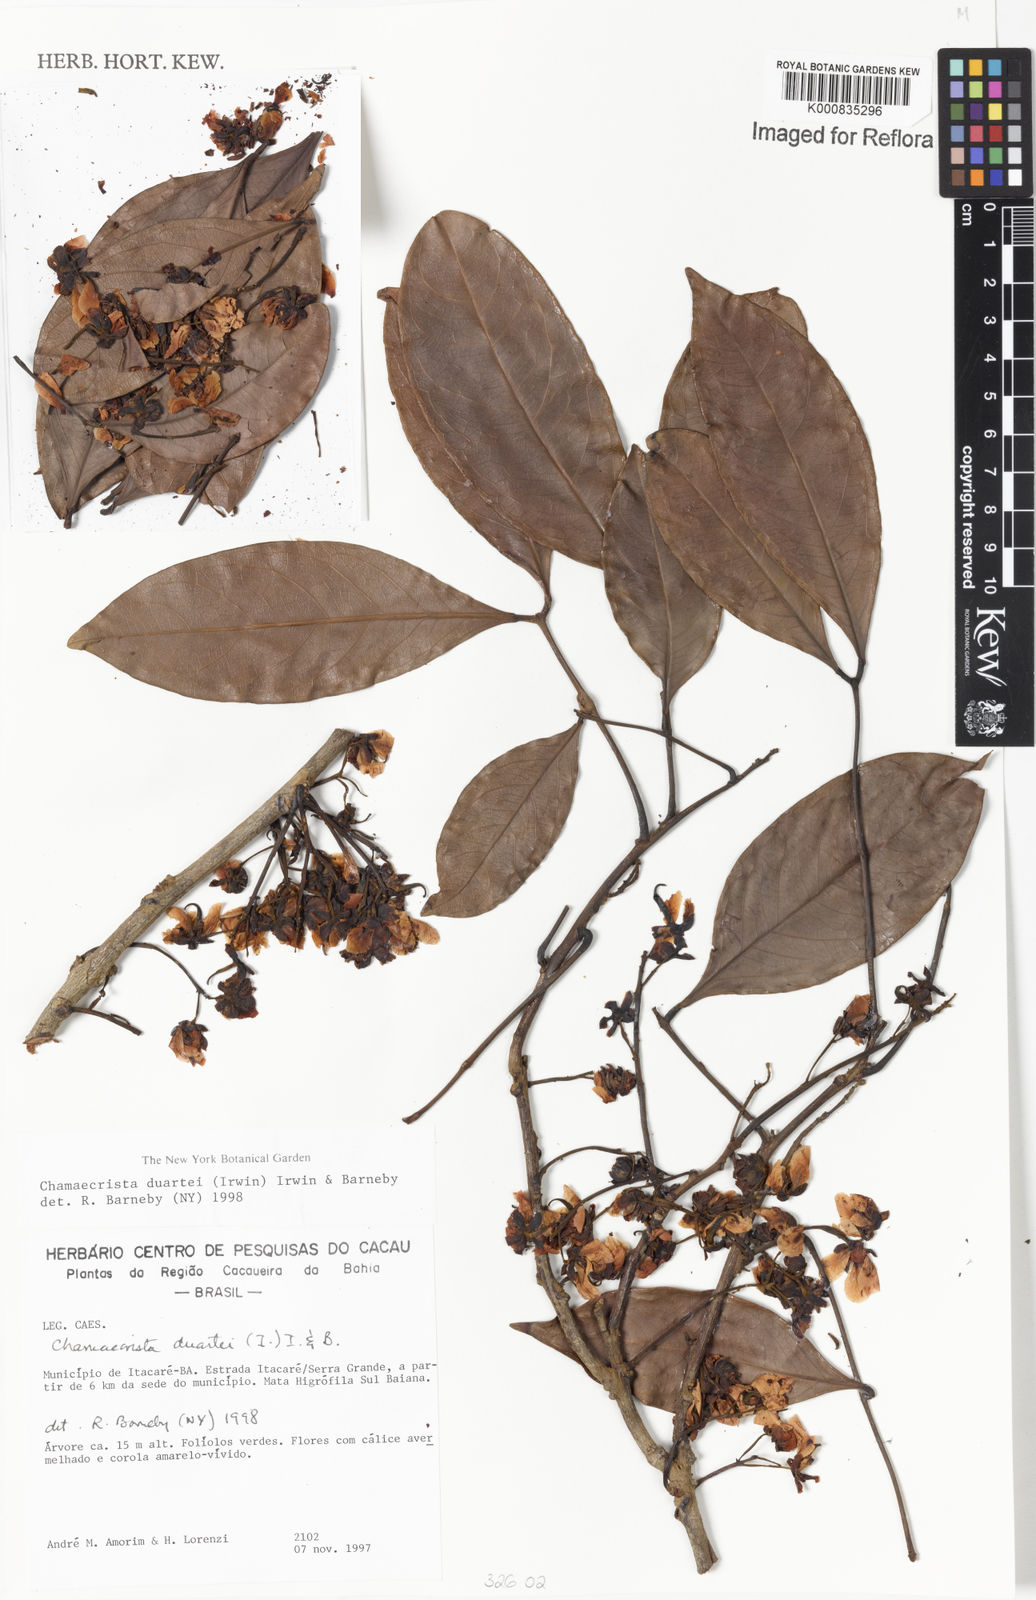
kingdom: Plantae
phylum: Tracheophyta
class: Magnoliopsida
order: Fabales
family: Fabaceae
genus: Chamaecrista
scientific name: Chamaecrista duartei
